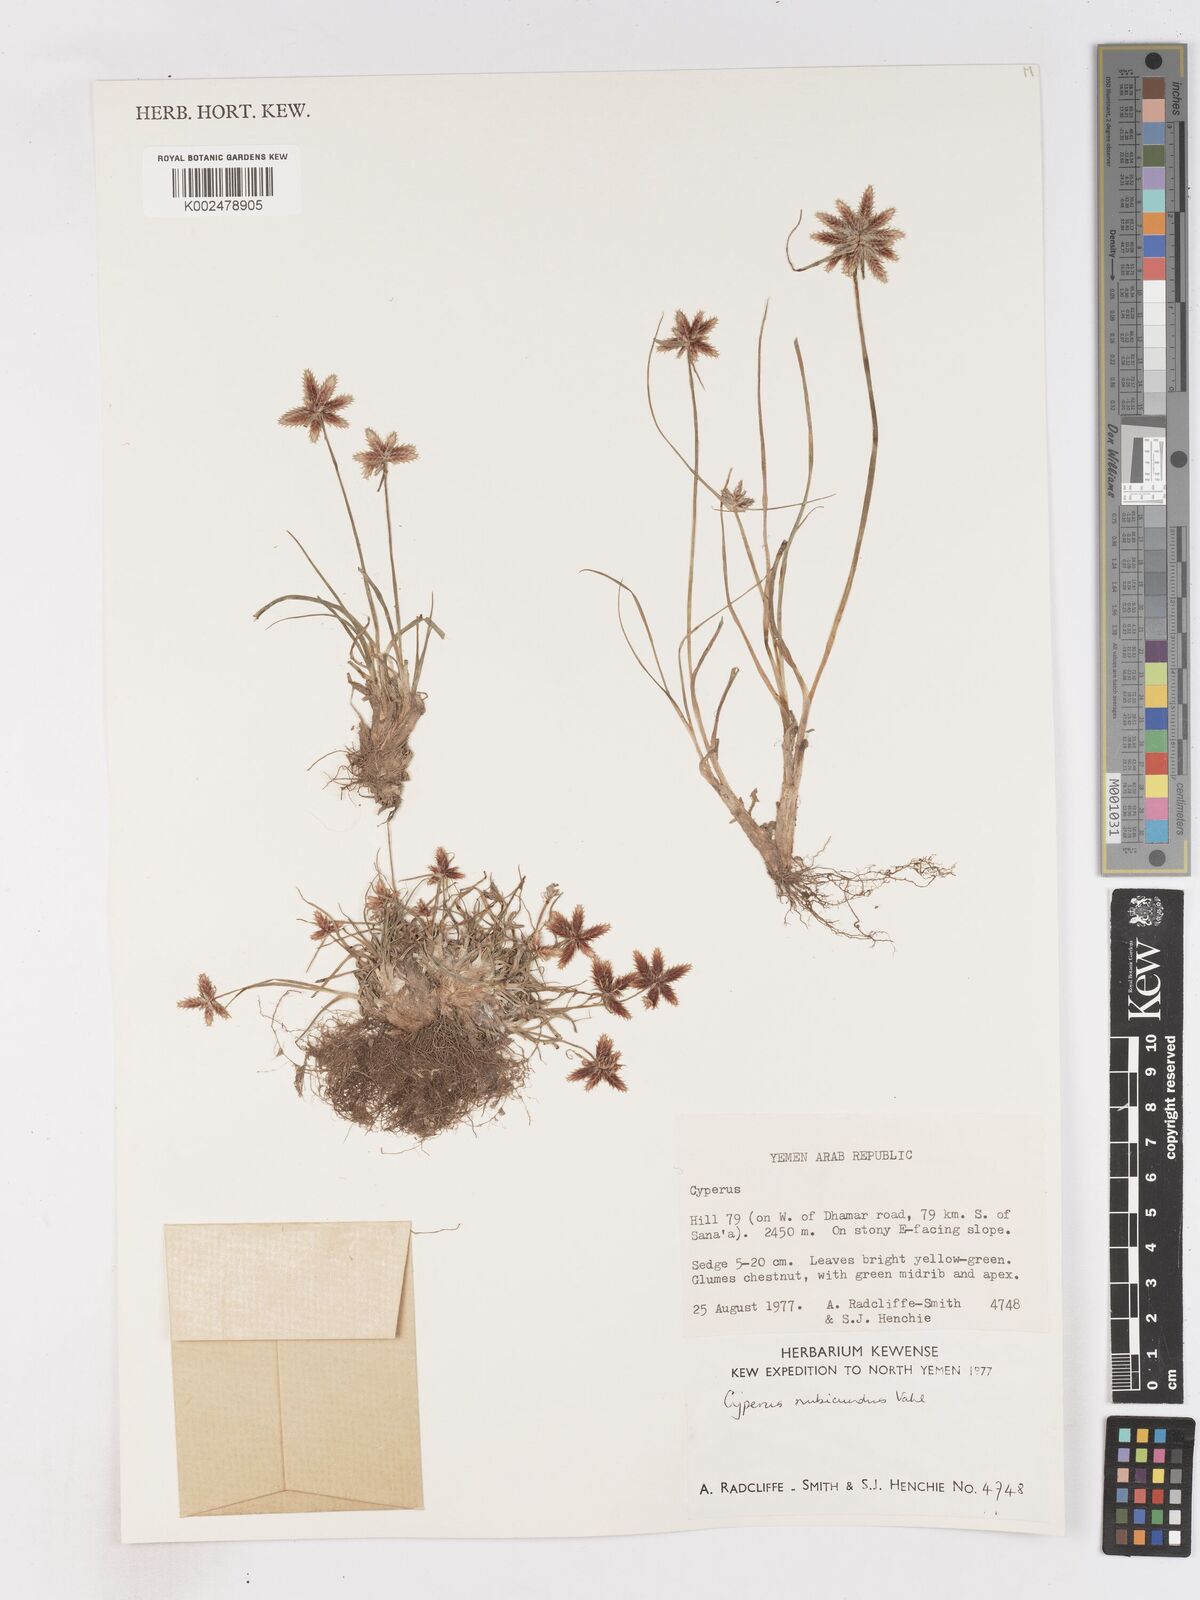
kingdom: Plantae
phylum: Tracheophyta
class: Liliopsida
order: Poales
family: Cyperaceae
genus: Cyperus
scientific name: Cyperus rubicundus
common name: Coco-grass
